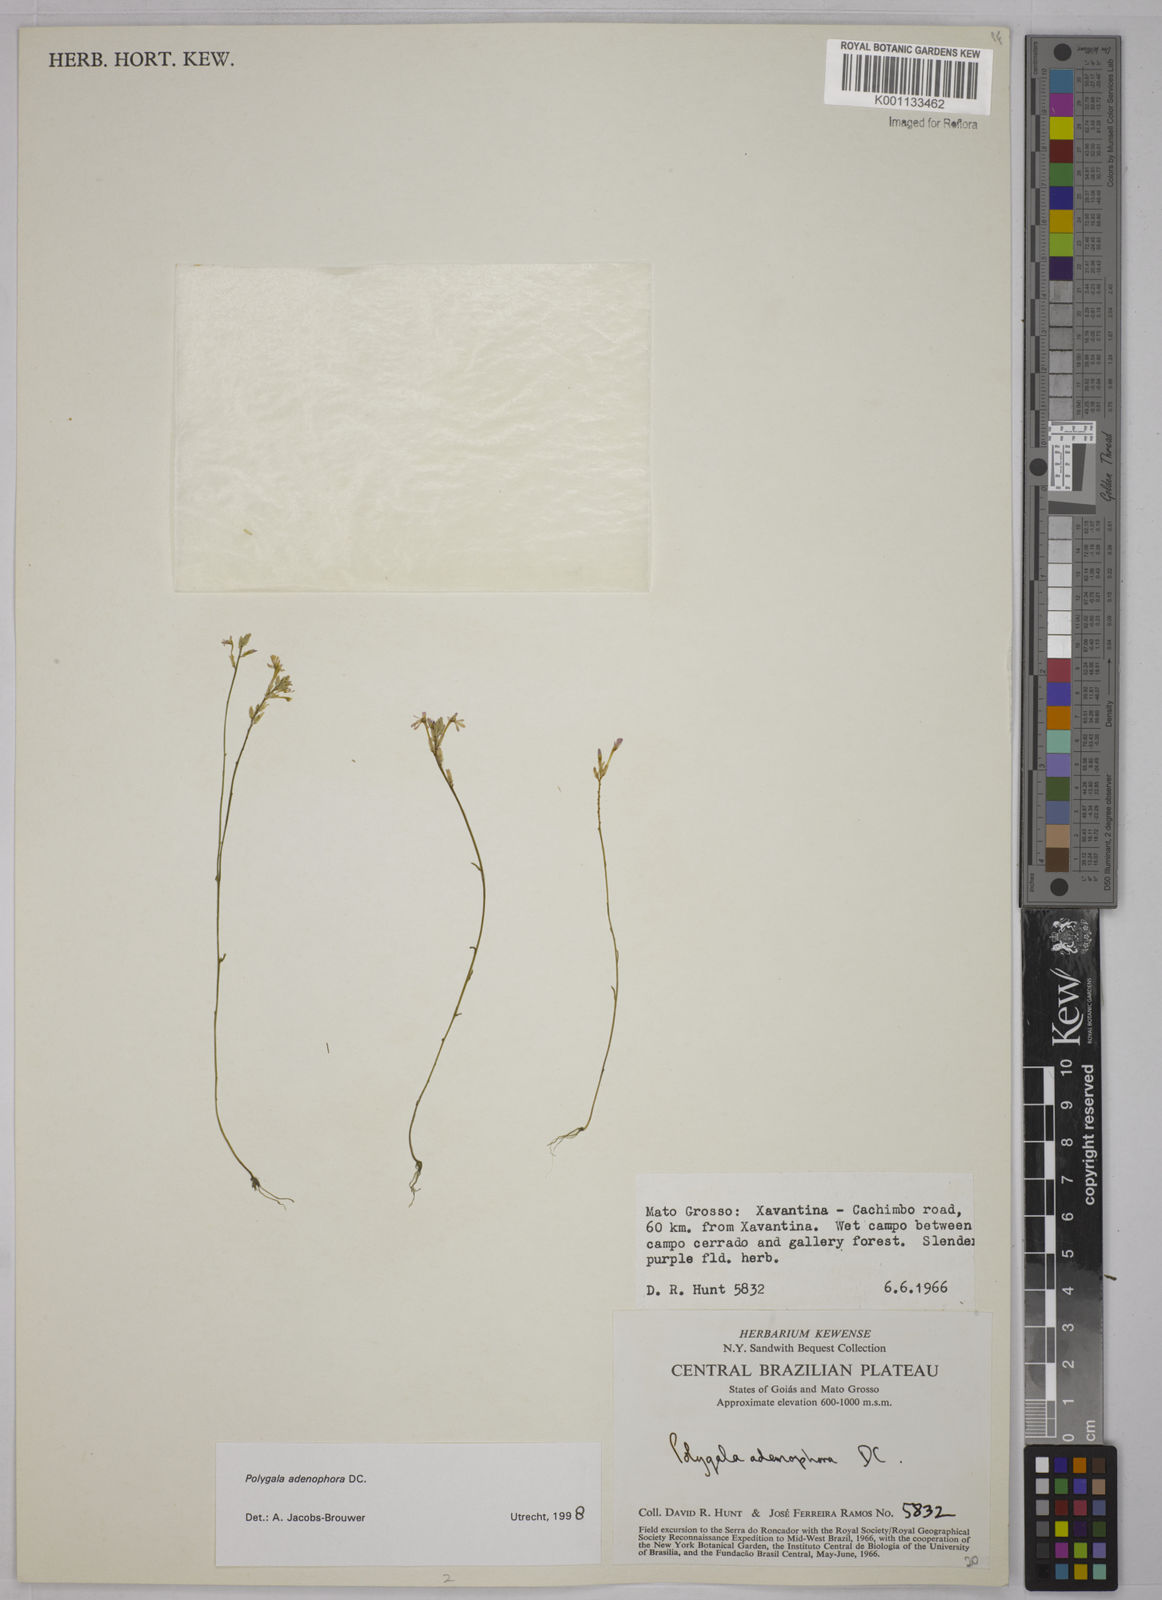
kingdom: Plantae
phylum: Tracheophyta
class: Magnoliopsida
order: Fabales
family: Polygalaceae
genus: Polygala
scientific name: Polygala adenophora
